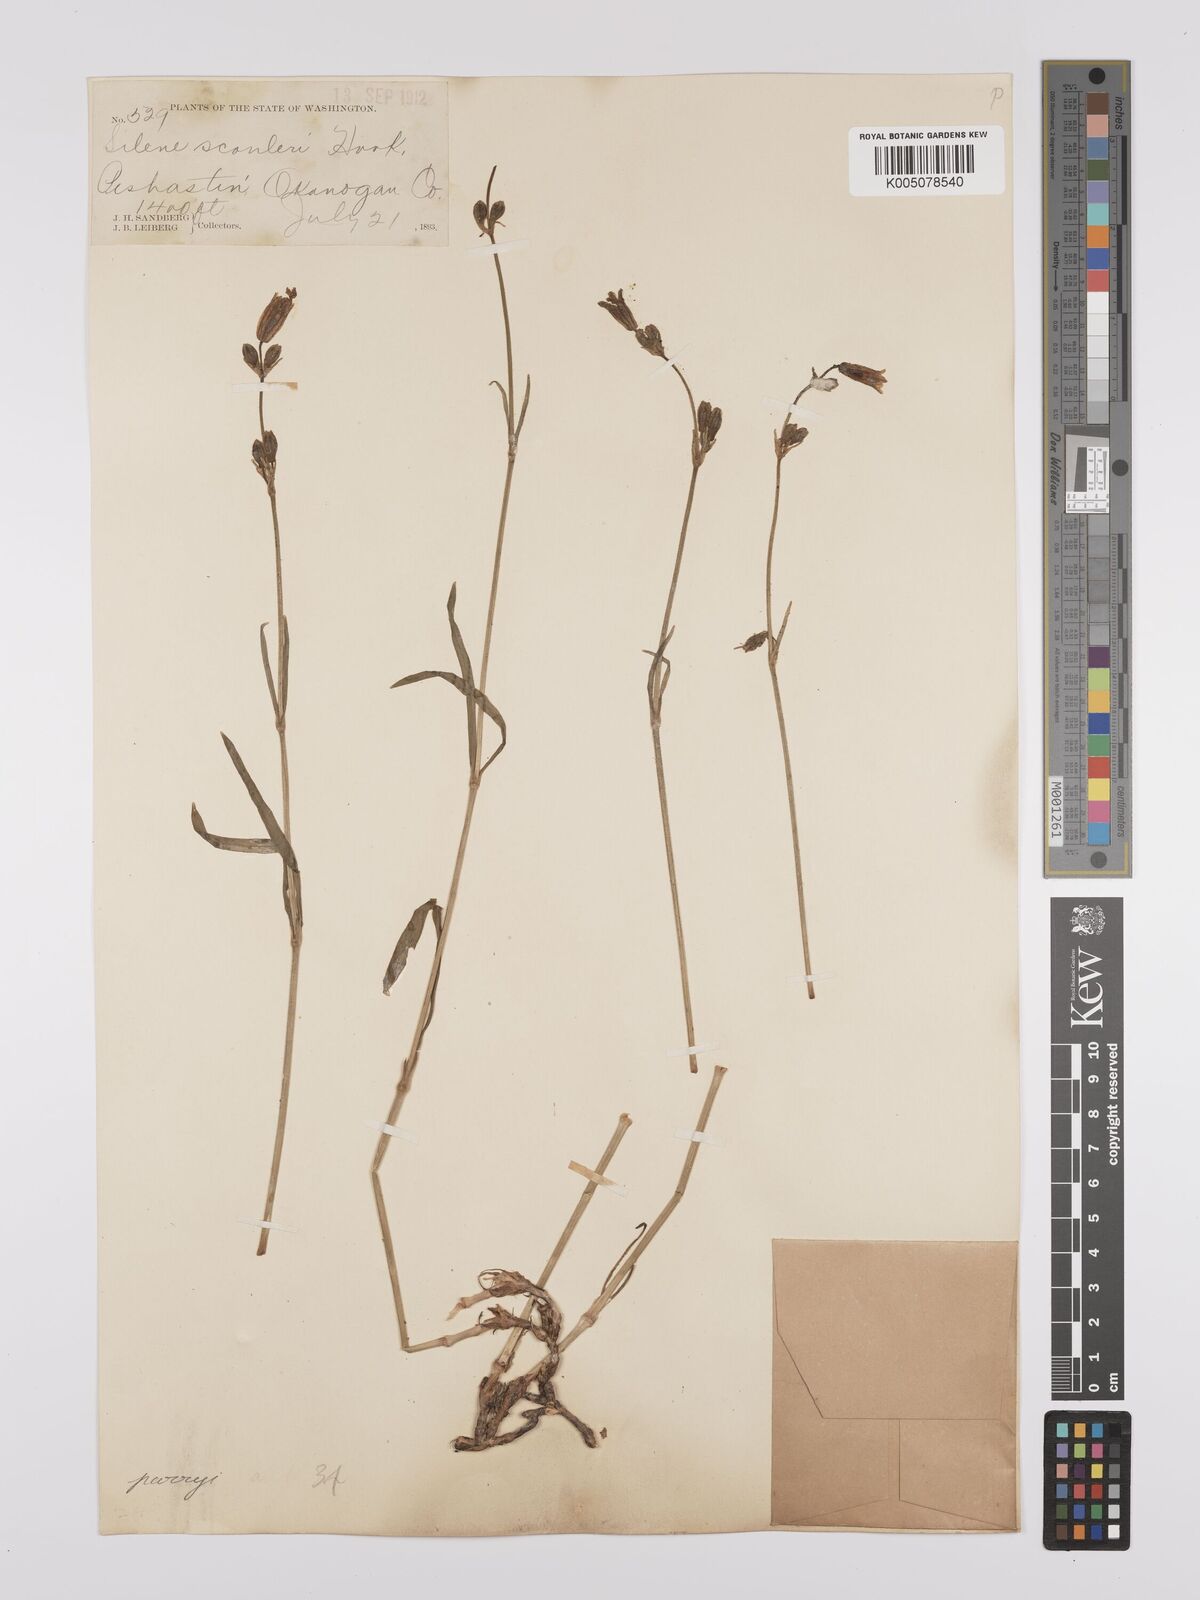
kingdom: Plantae
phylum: Tracheophyta
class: Magnoliopsida
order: Caryophyllales
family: Caryophyllaceae
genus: Silene
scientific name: Silene parryi
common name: Parry's campion
